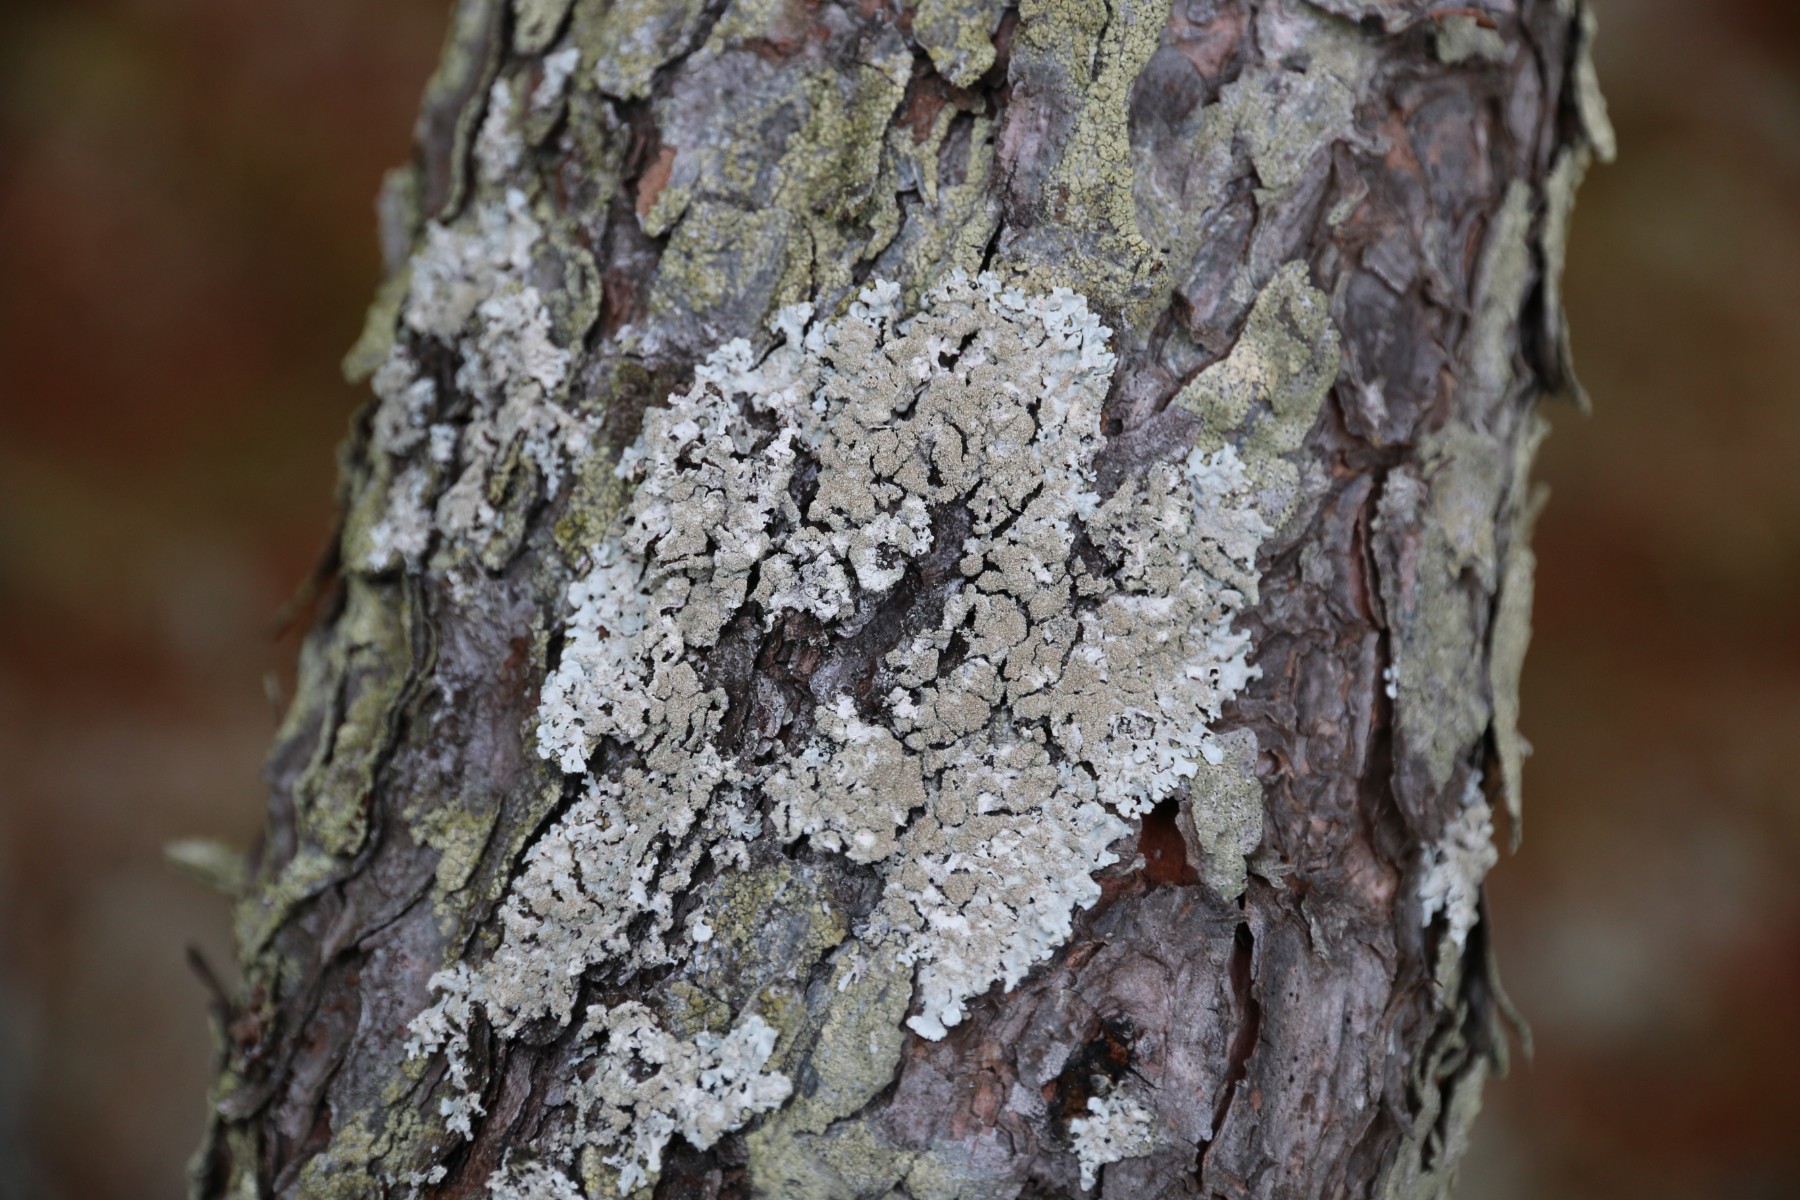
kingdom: Fungi
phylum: Ascomycota
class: Lecanoromycetes
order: Lecanorales
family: Parmeliaceae
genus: Imshaugia
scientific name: Imshaugia aleurites
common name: kliddet stolpelav
